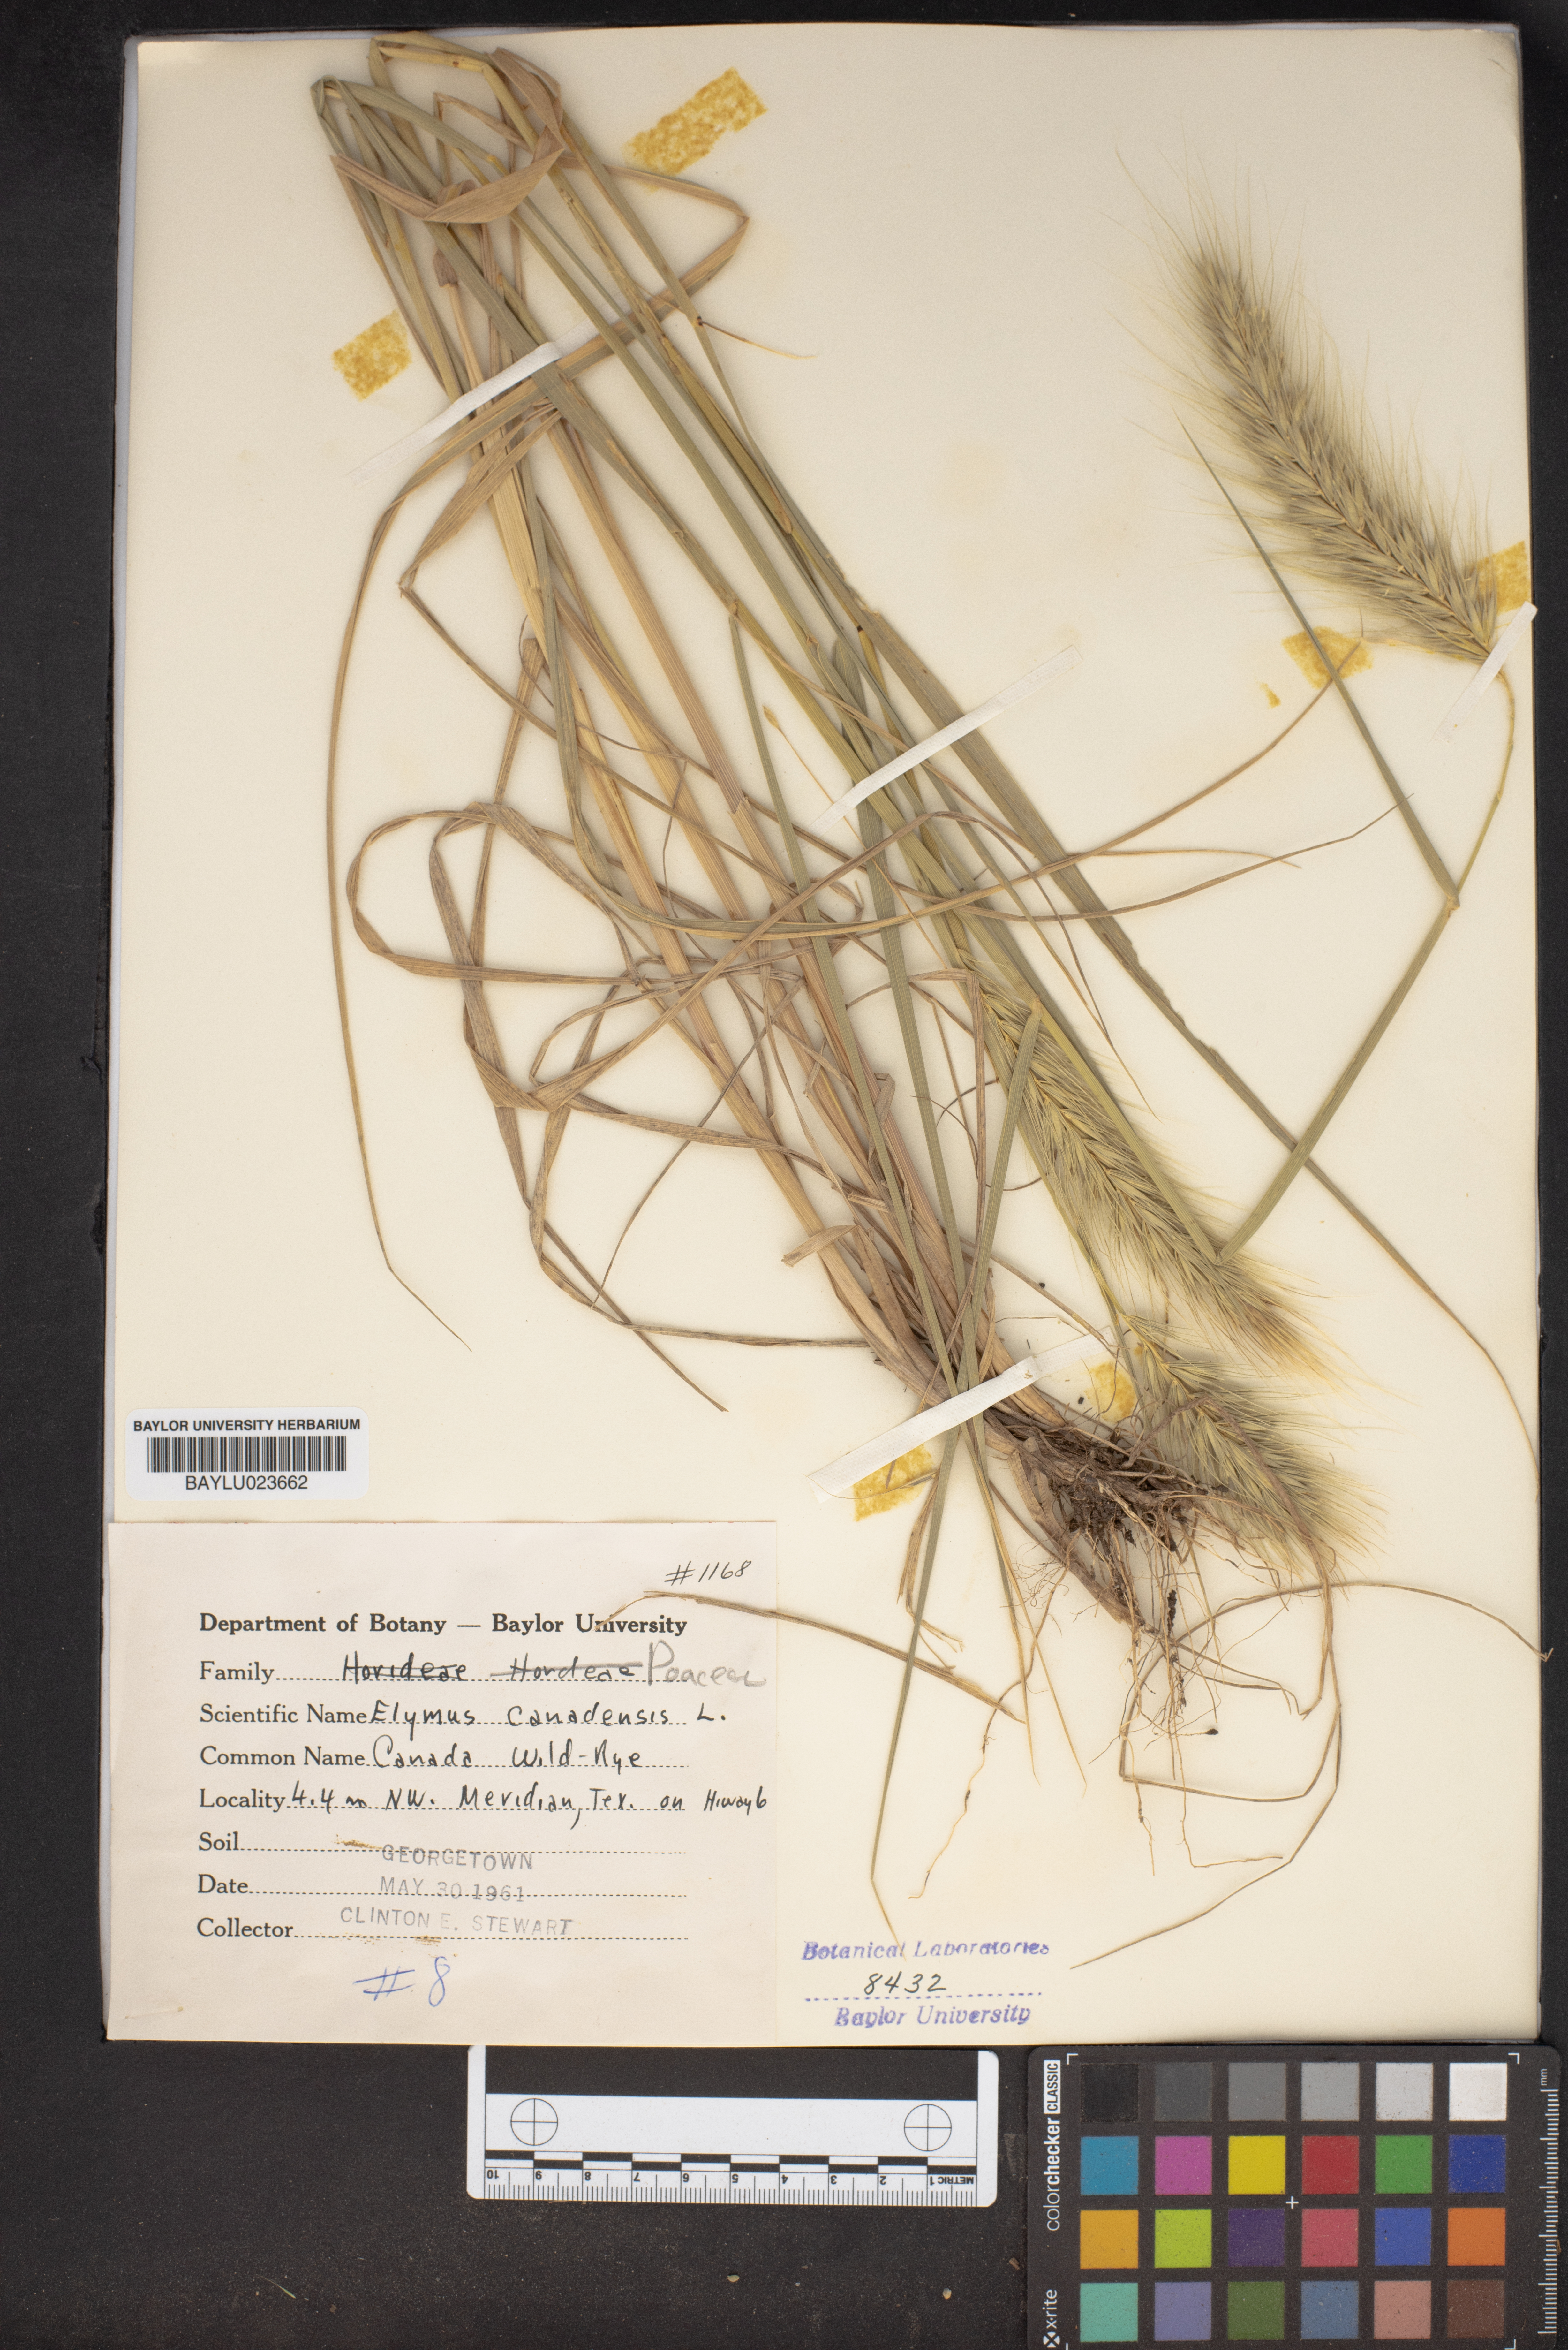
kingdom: Plantae
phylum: Tracheophyta
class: Liliopsida
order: Poales
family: Poaceae
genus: Elymus
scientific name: Elymus canadensis
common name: Canada wild rye
